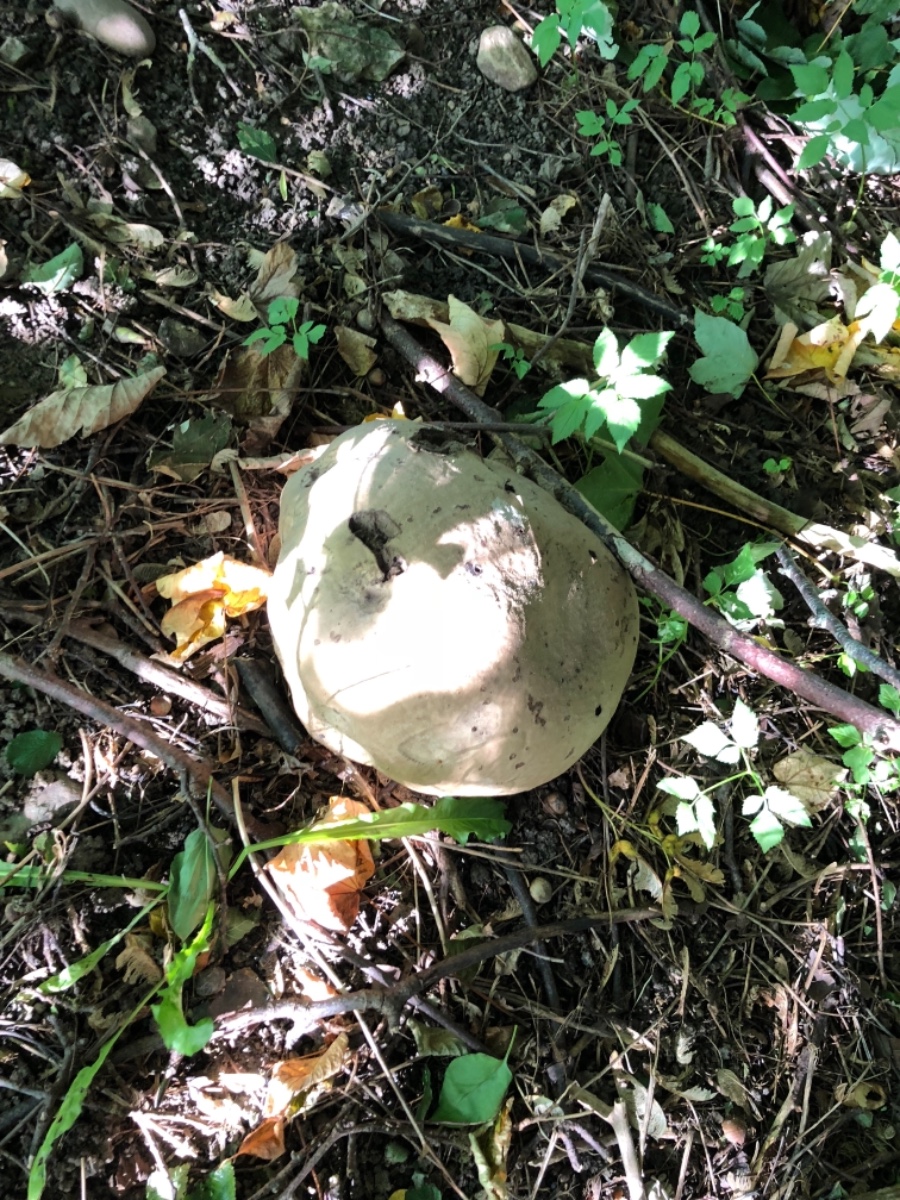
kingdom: Fungi
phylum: Basidiomycota
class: Agaricomycetes
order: Agaricales
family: Lycoperdaceae
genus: Calvatia
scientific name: Calvatia gigantea
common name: kæmpestøvbold
